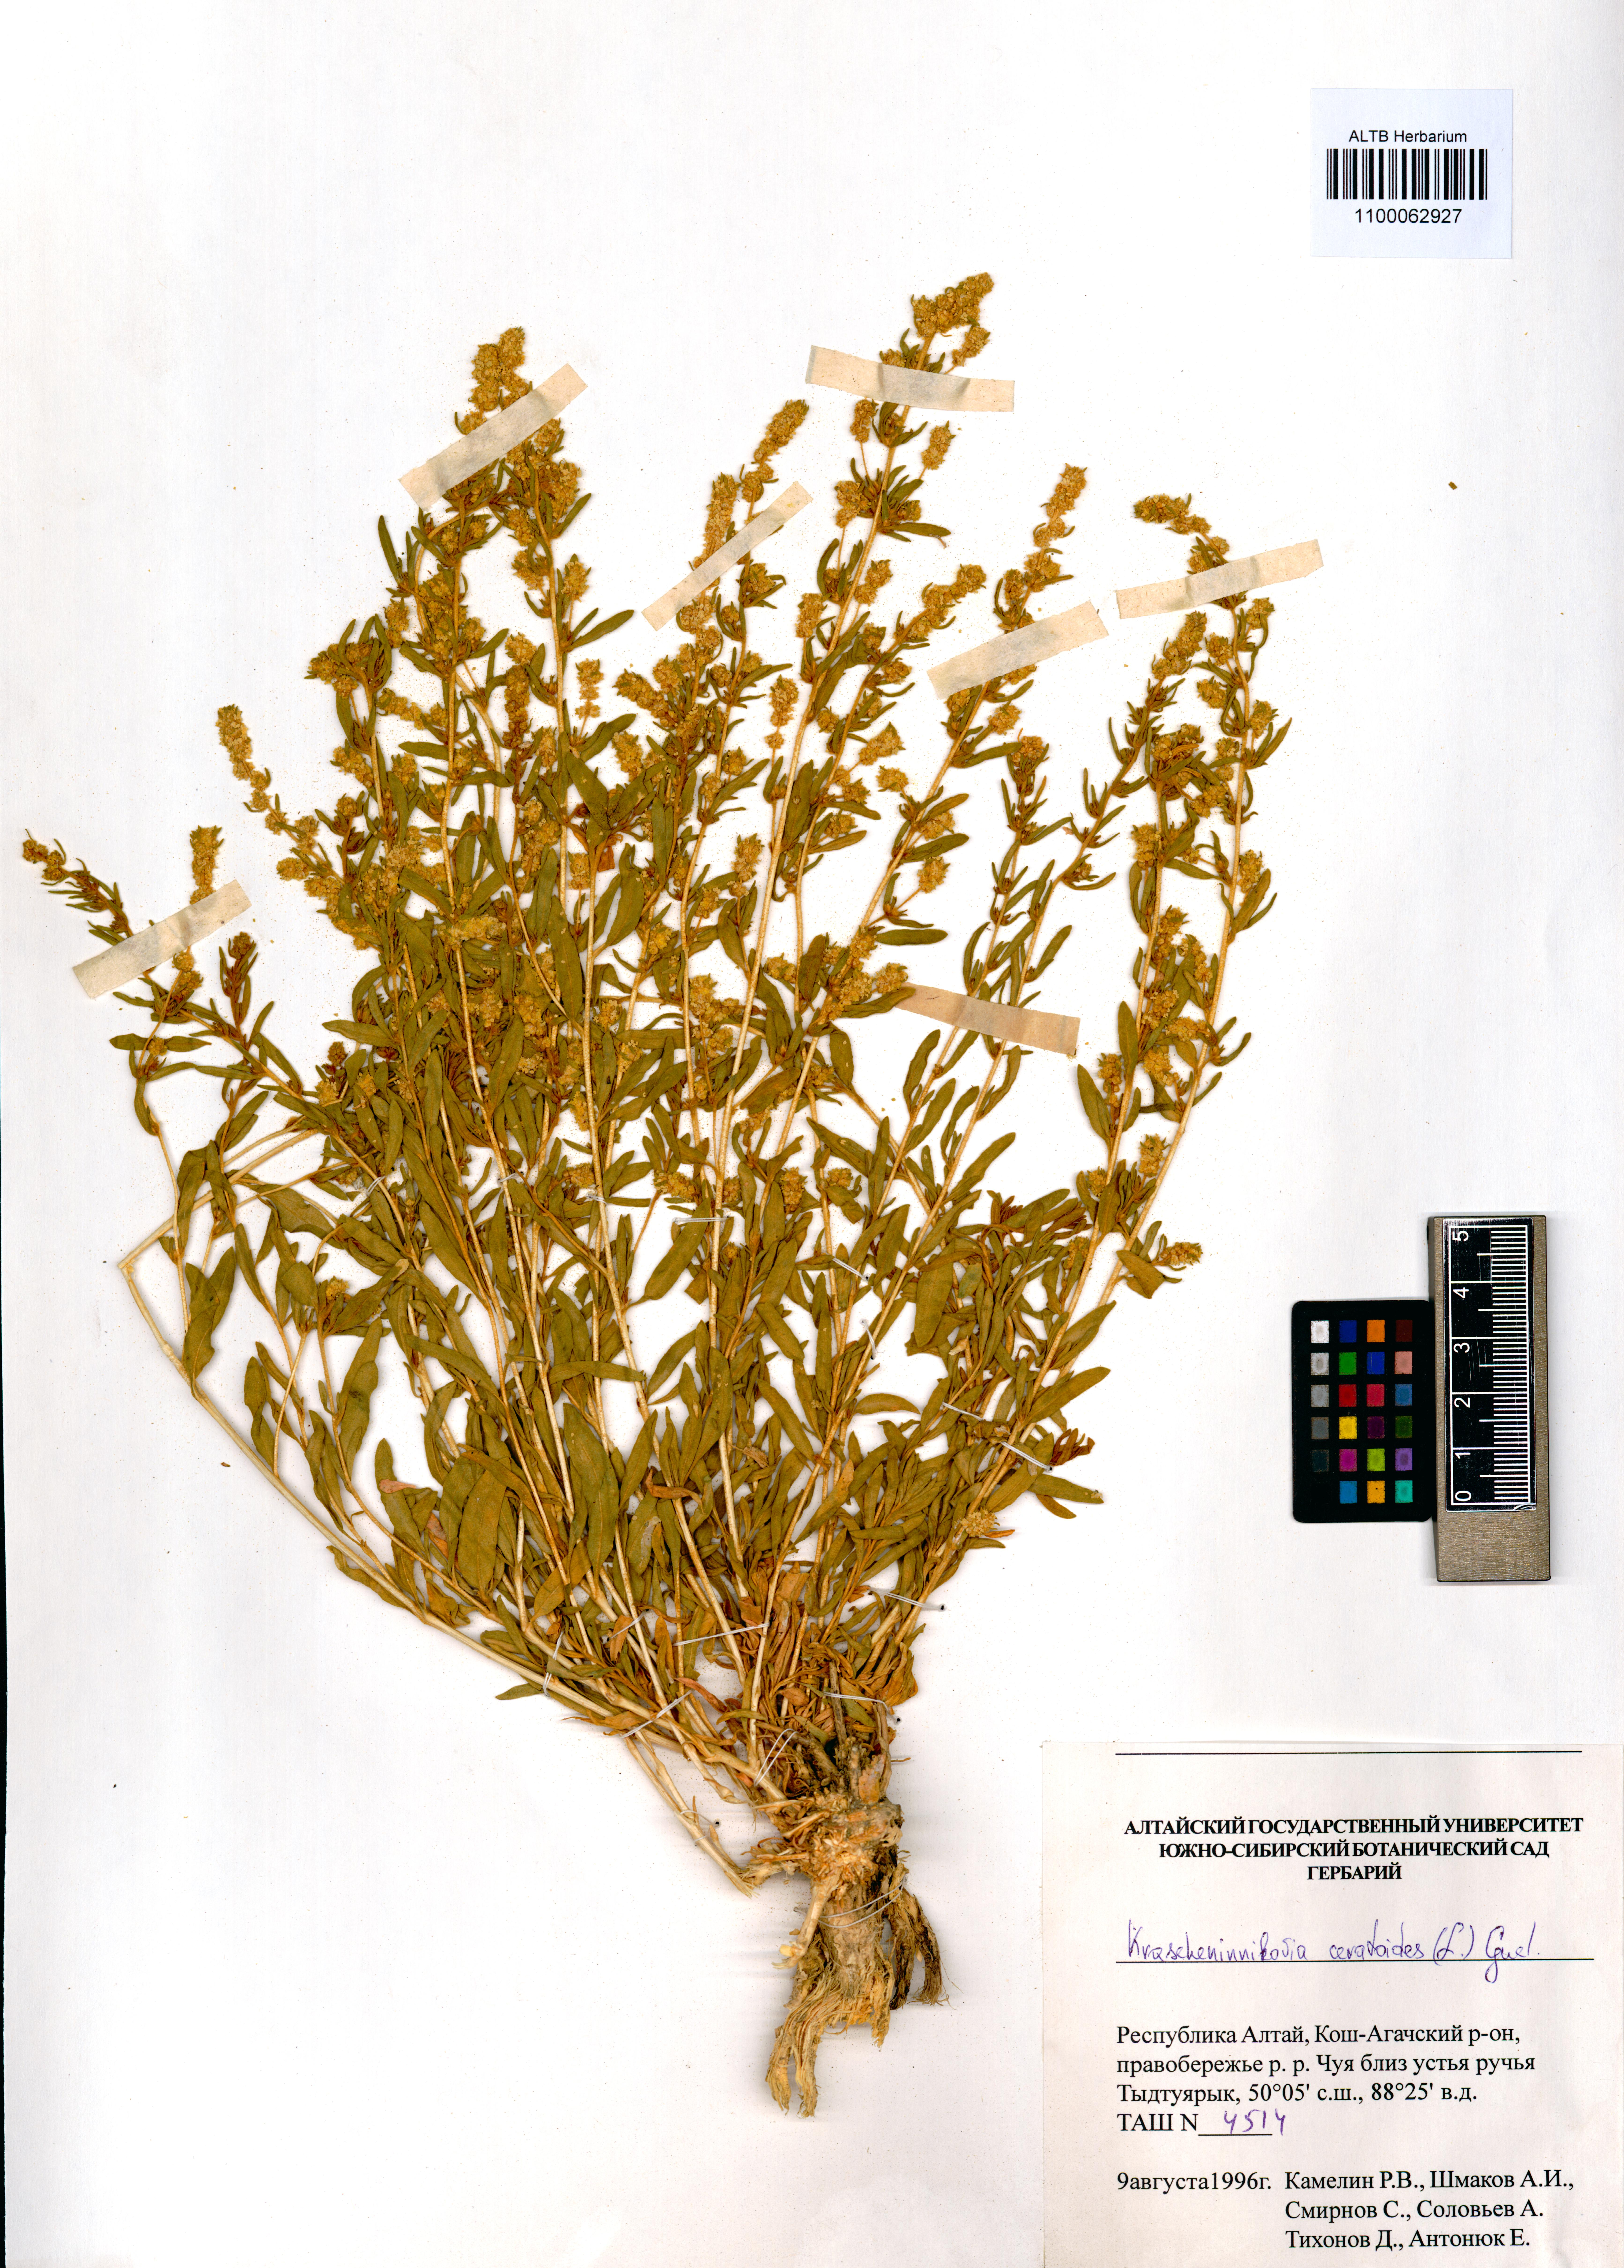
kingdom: Plantae
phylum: Tracheophyta
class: Magnoliopsida
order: Caryophyllales
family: Amaranthaceae
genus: Krascheninnikovia
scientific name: Krascheninnikovia ceratoides
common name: Pamirian winterfat
